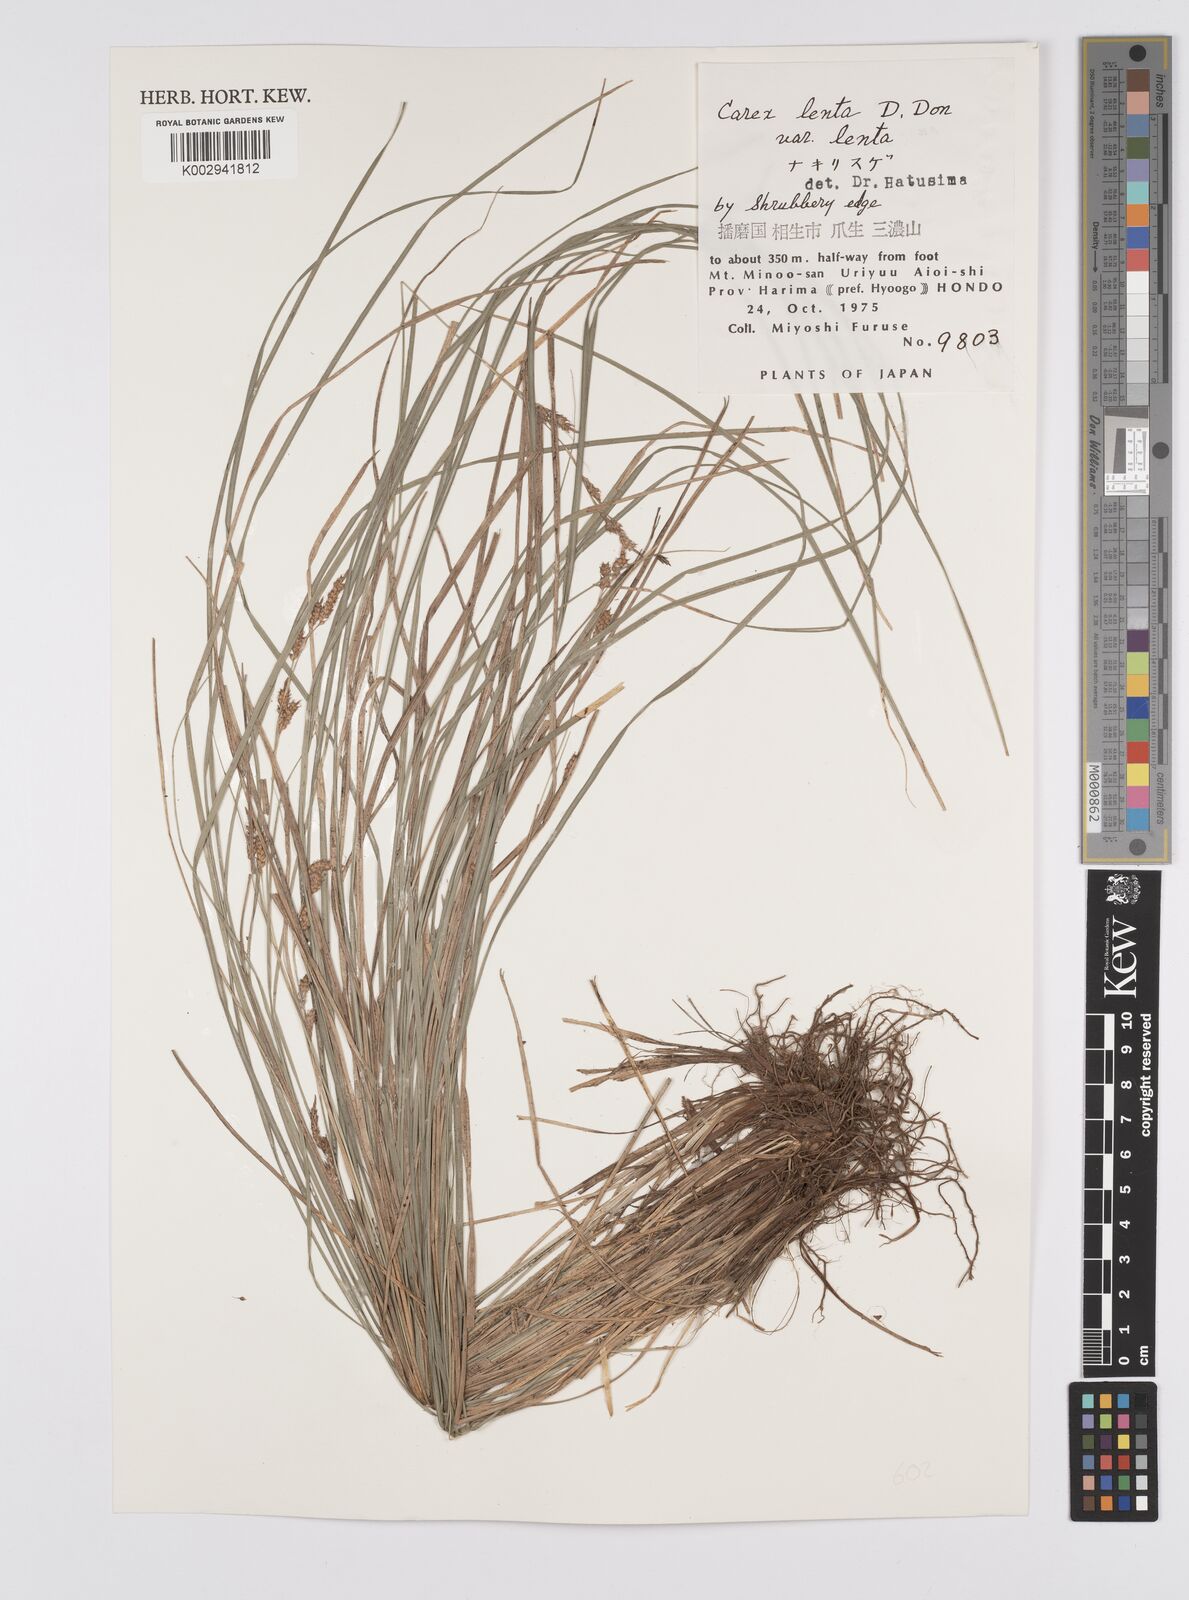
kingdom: Plantae
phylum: Tracheophyta
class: Liliopsida
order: Poales
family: Cyperaceae
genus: Carex
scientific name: Carex brunnea
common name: Greater brown sedge
